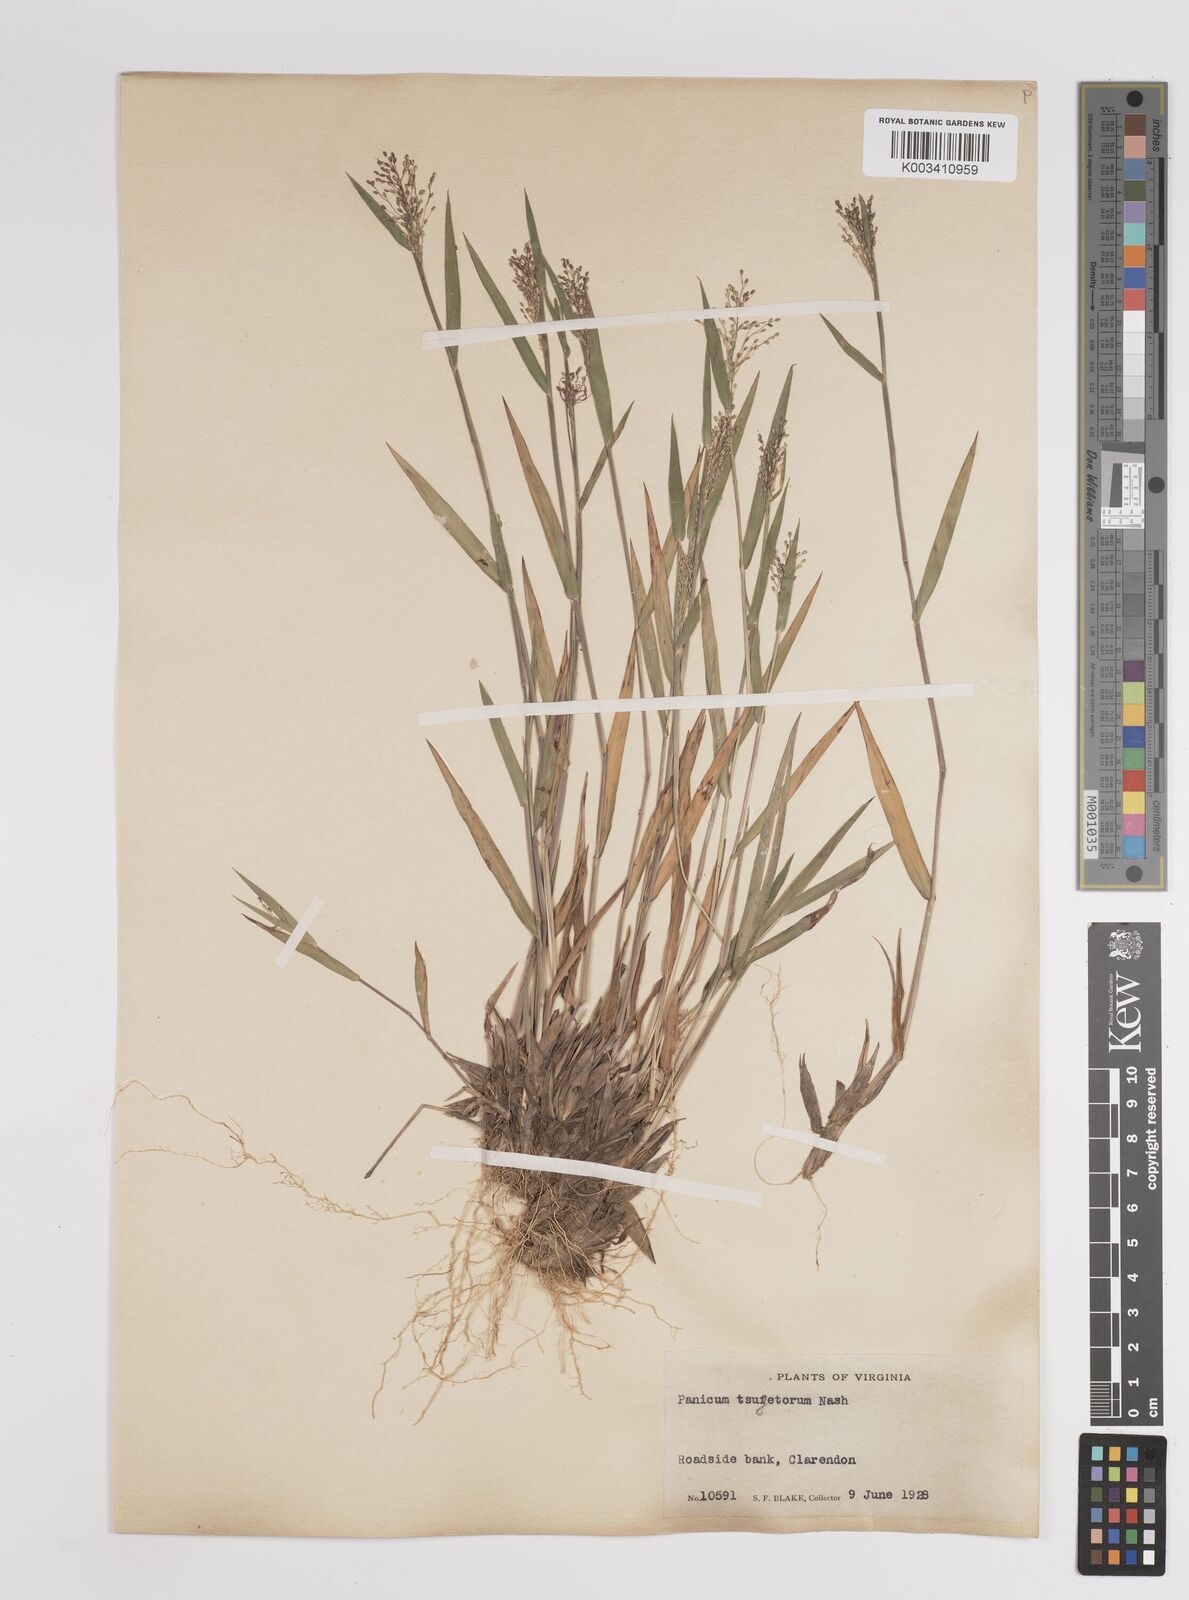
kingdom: Plantae
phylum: Tracheophyta
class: Liliopsida
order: Poales
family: Poaceae
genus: Dichanthelium
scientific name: Dichanthelium columbianum
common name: Hemlock panic grass
